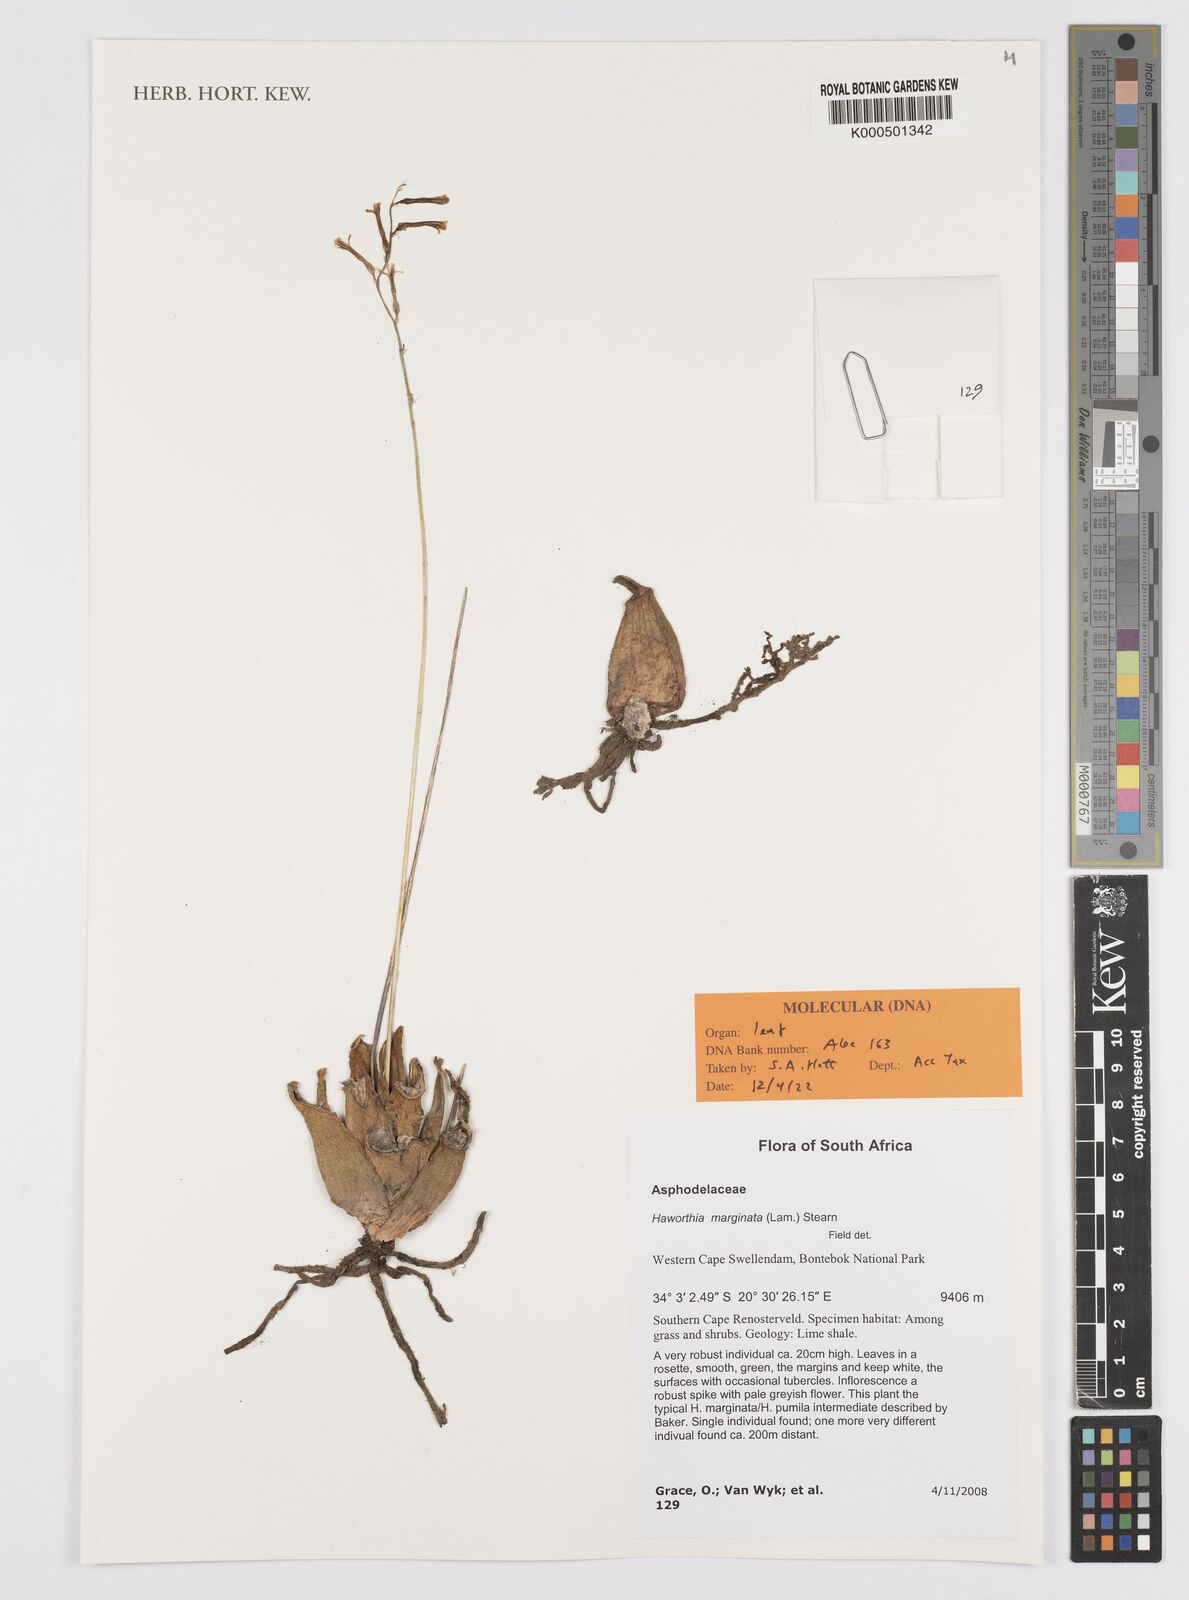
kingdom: Plantae
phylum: Tracheophyta
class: Liliopsida
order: Asparagales
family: Asphodelaceae
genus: Tulista
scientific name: Tulista marginata
